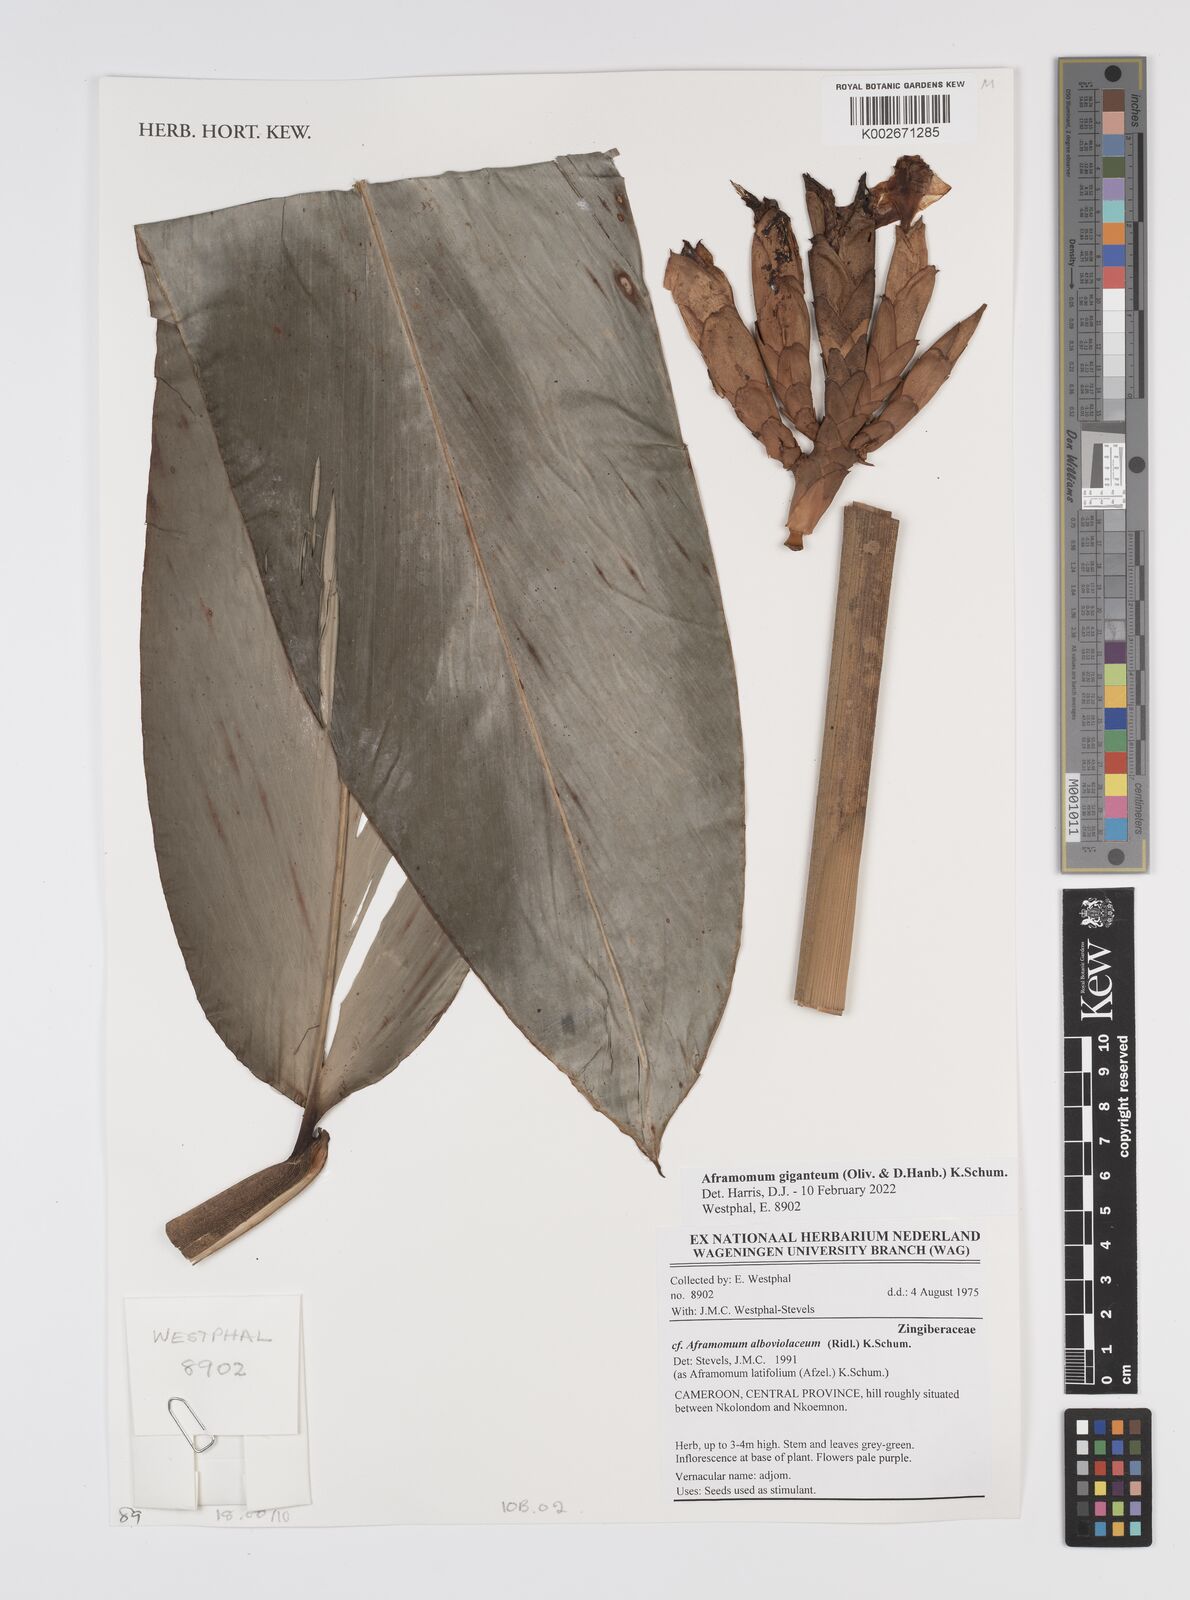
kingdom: Plantae
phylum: Tracheophyta
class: Liliopsida
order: Zingiberales
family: Zingiberaceae
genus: Aframomum
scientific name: Aframomum giganteum
